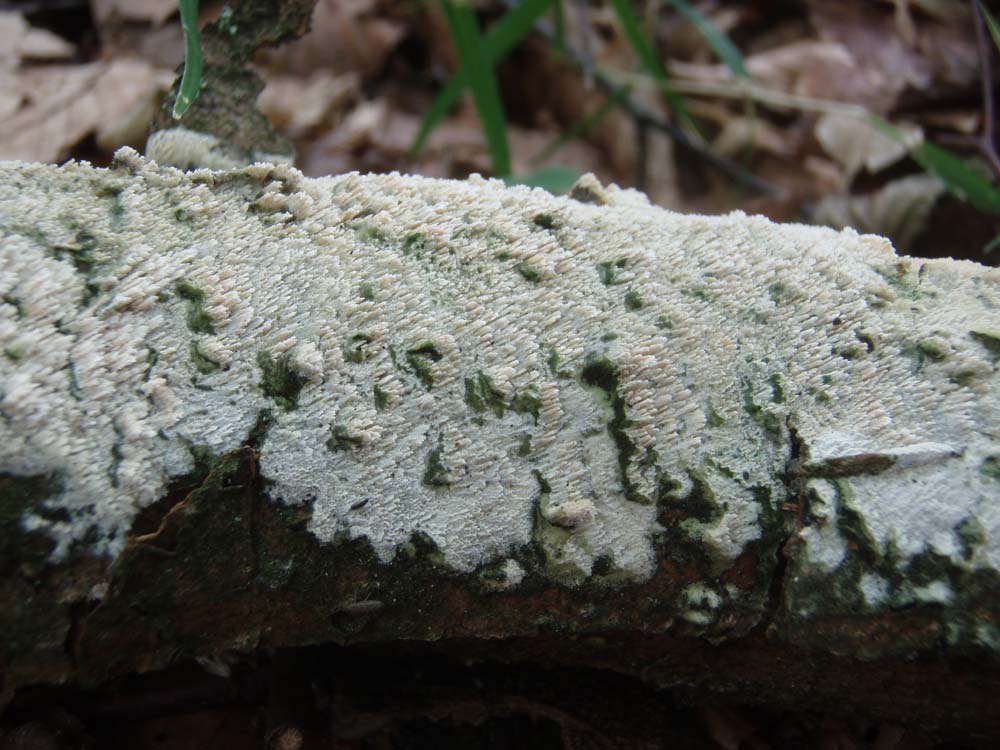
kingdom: Fungi
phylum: Basidiomycota
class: Agaricomycetes
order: Hymenochaetales
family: Schizoporaceae
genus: Schizopora
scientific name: Schizopora paradoxa
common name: hvid tandsvamp
